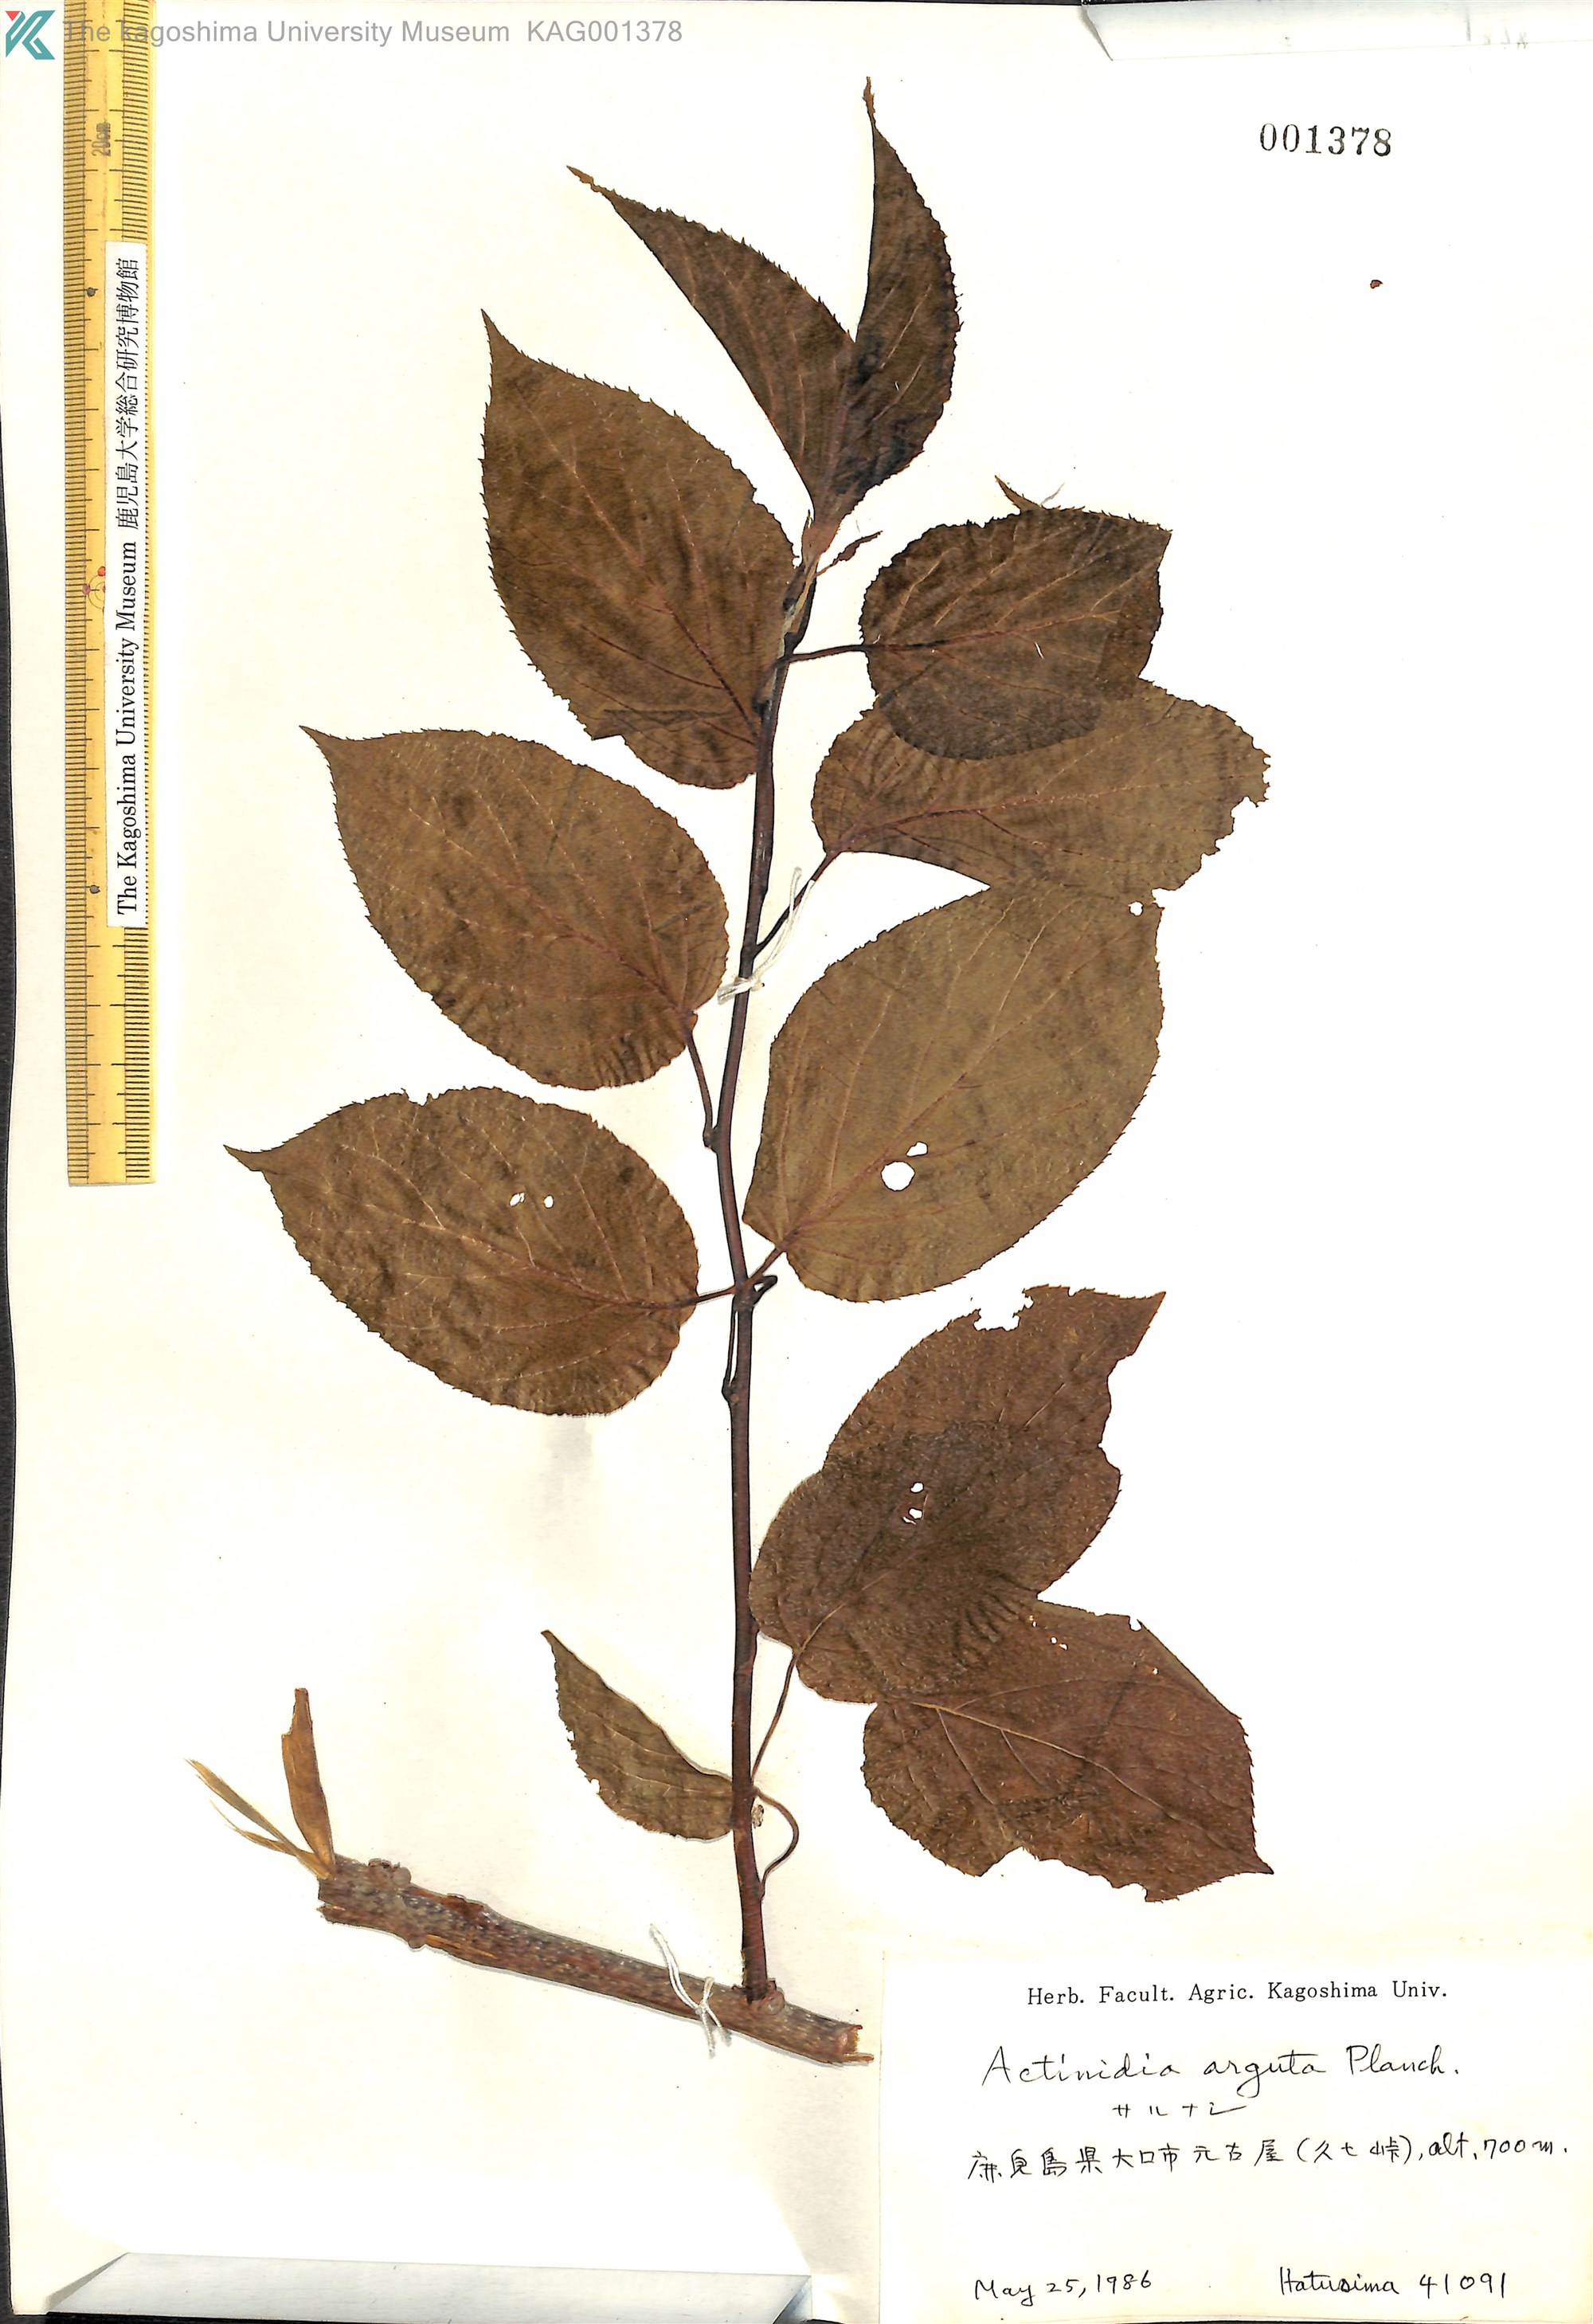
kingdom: Plantae
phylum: Tracheophyta
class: Magnoliopsida
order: Ericales
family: Actinidiaceae
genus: Actinidia
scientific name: Actinidia arguta
